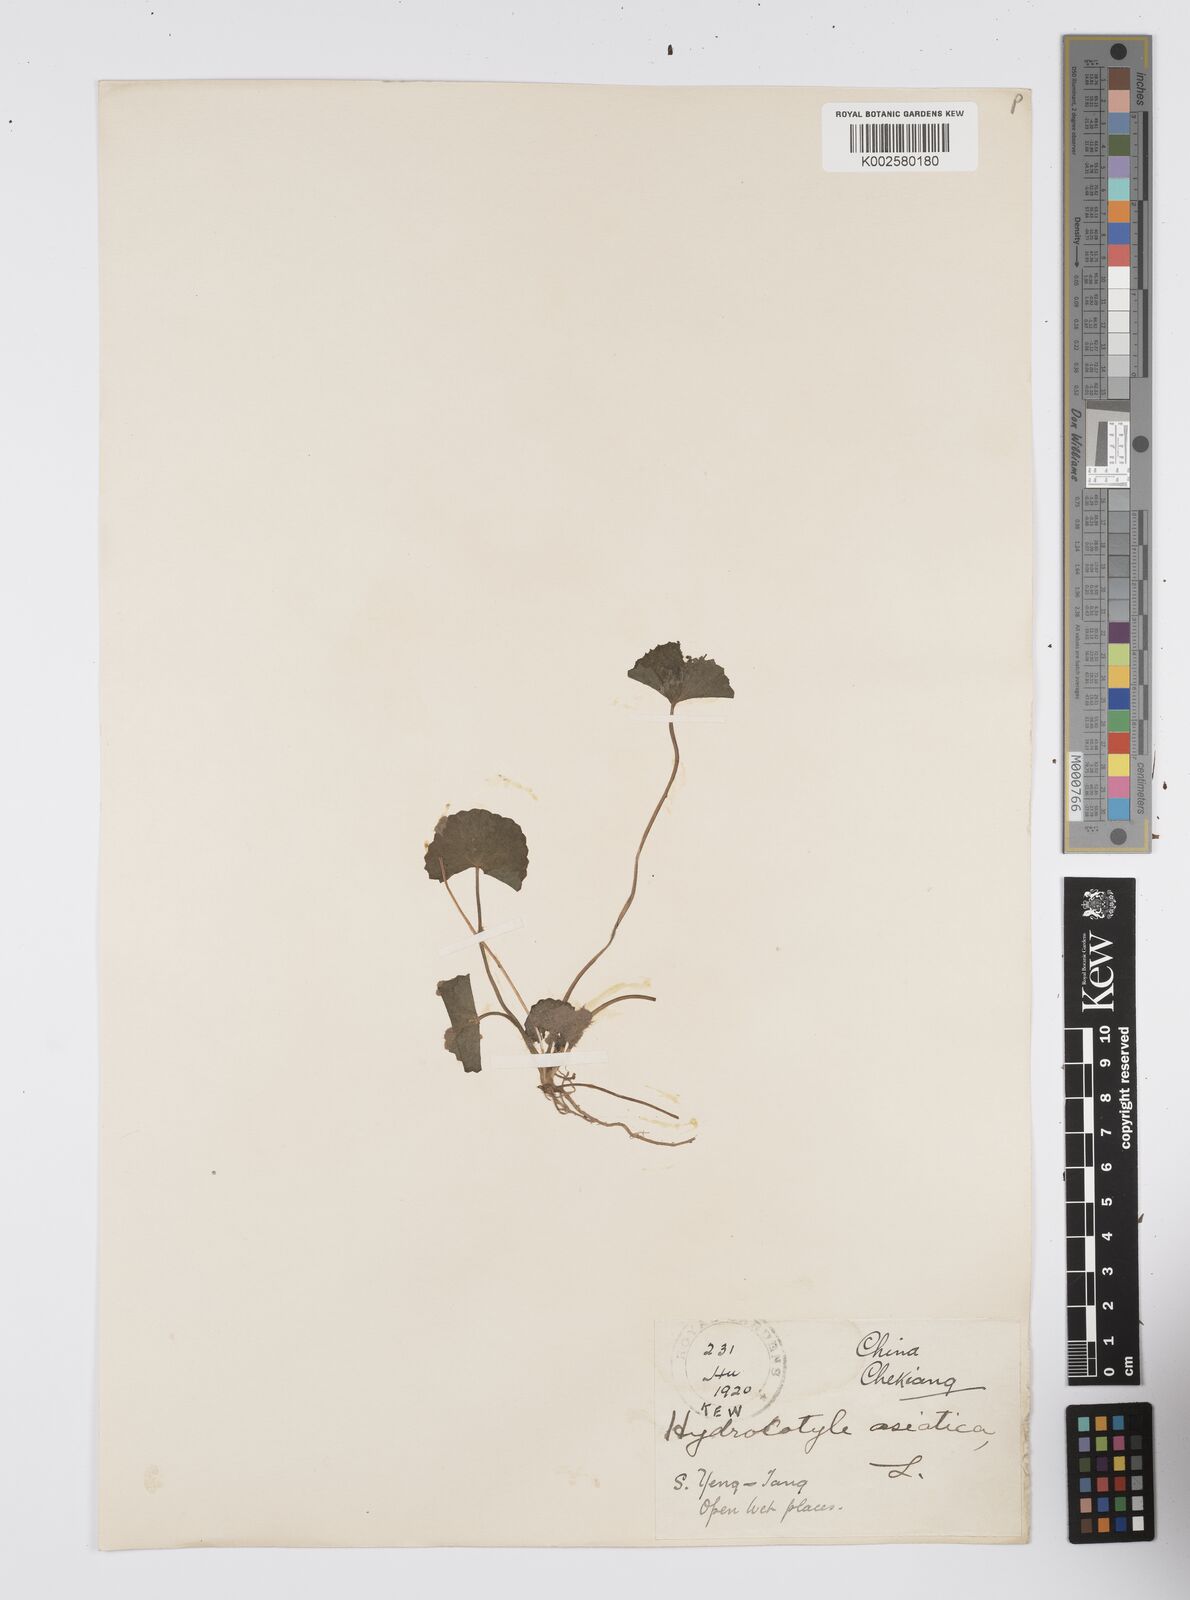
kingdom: Plantae
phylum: Tracheophyta
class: Magnoliopsida
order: Apiales
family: Apiaceae
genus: Centella
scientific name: Centella asiatica
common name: Spadeleaf
